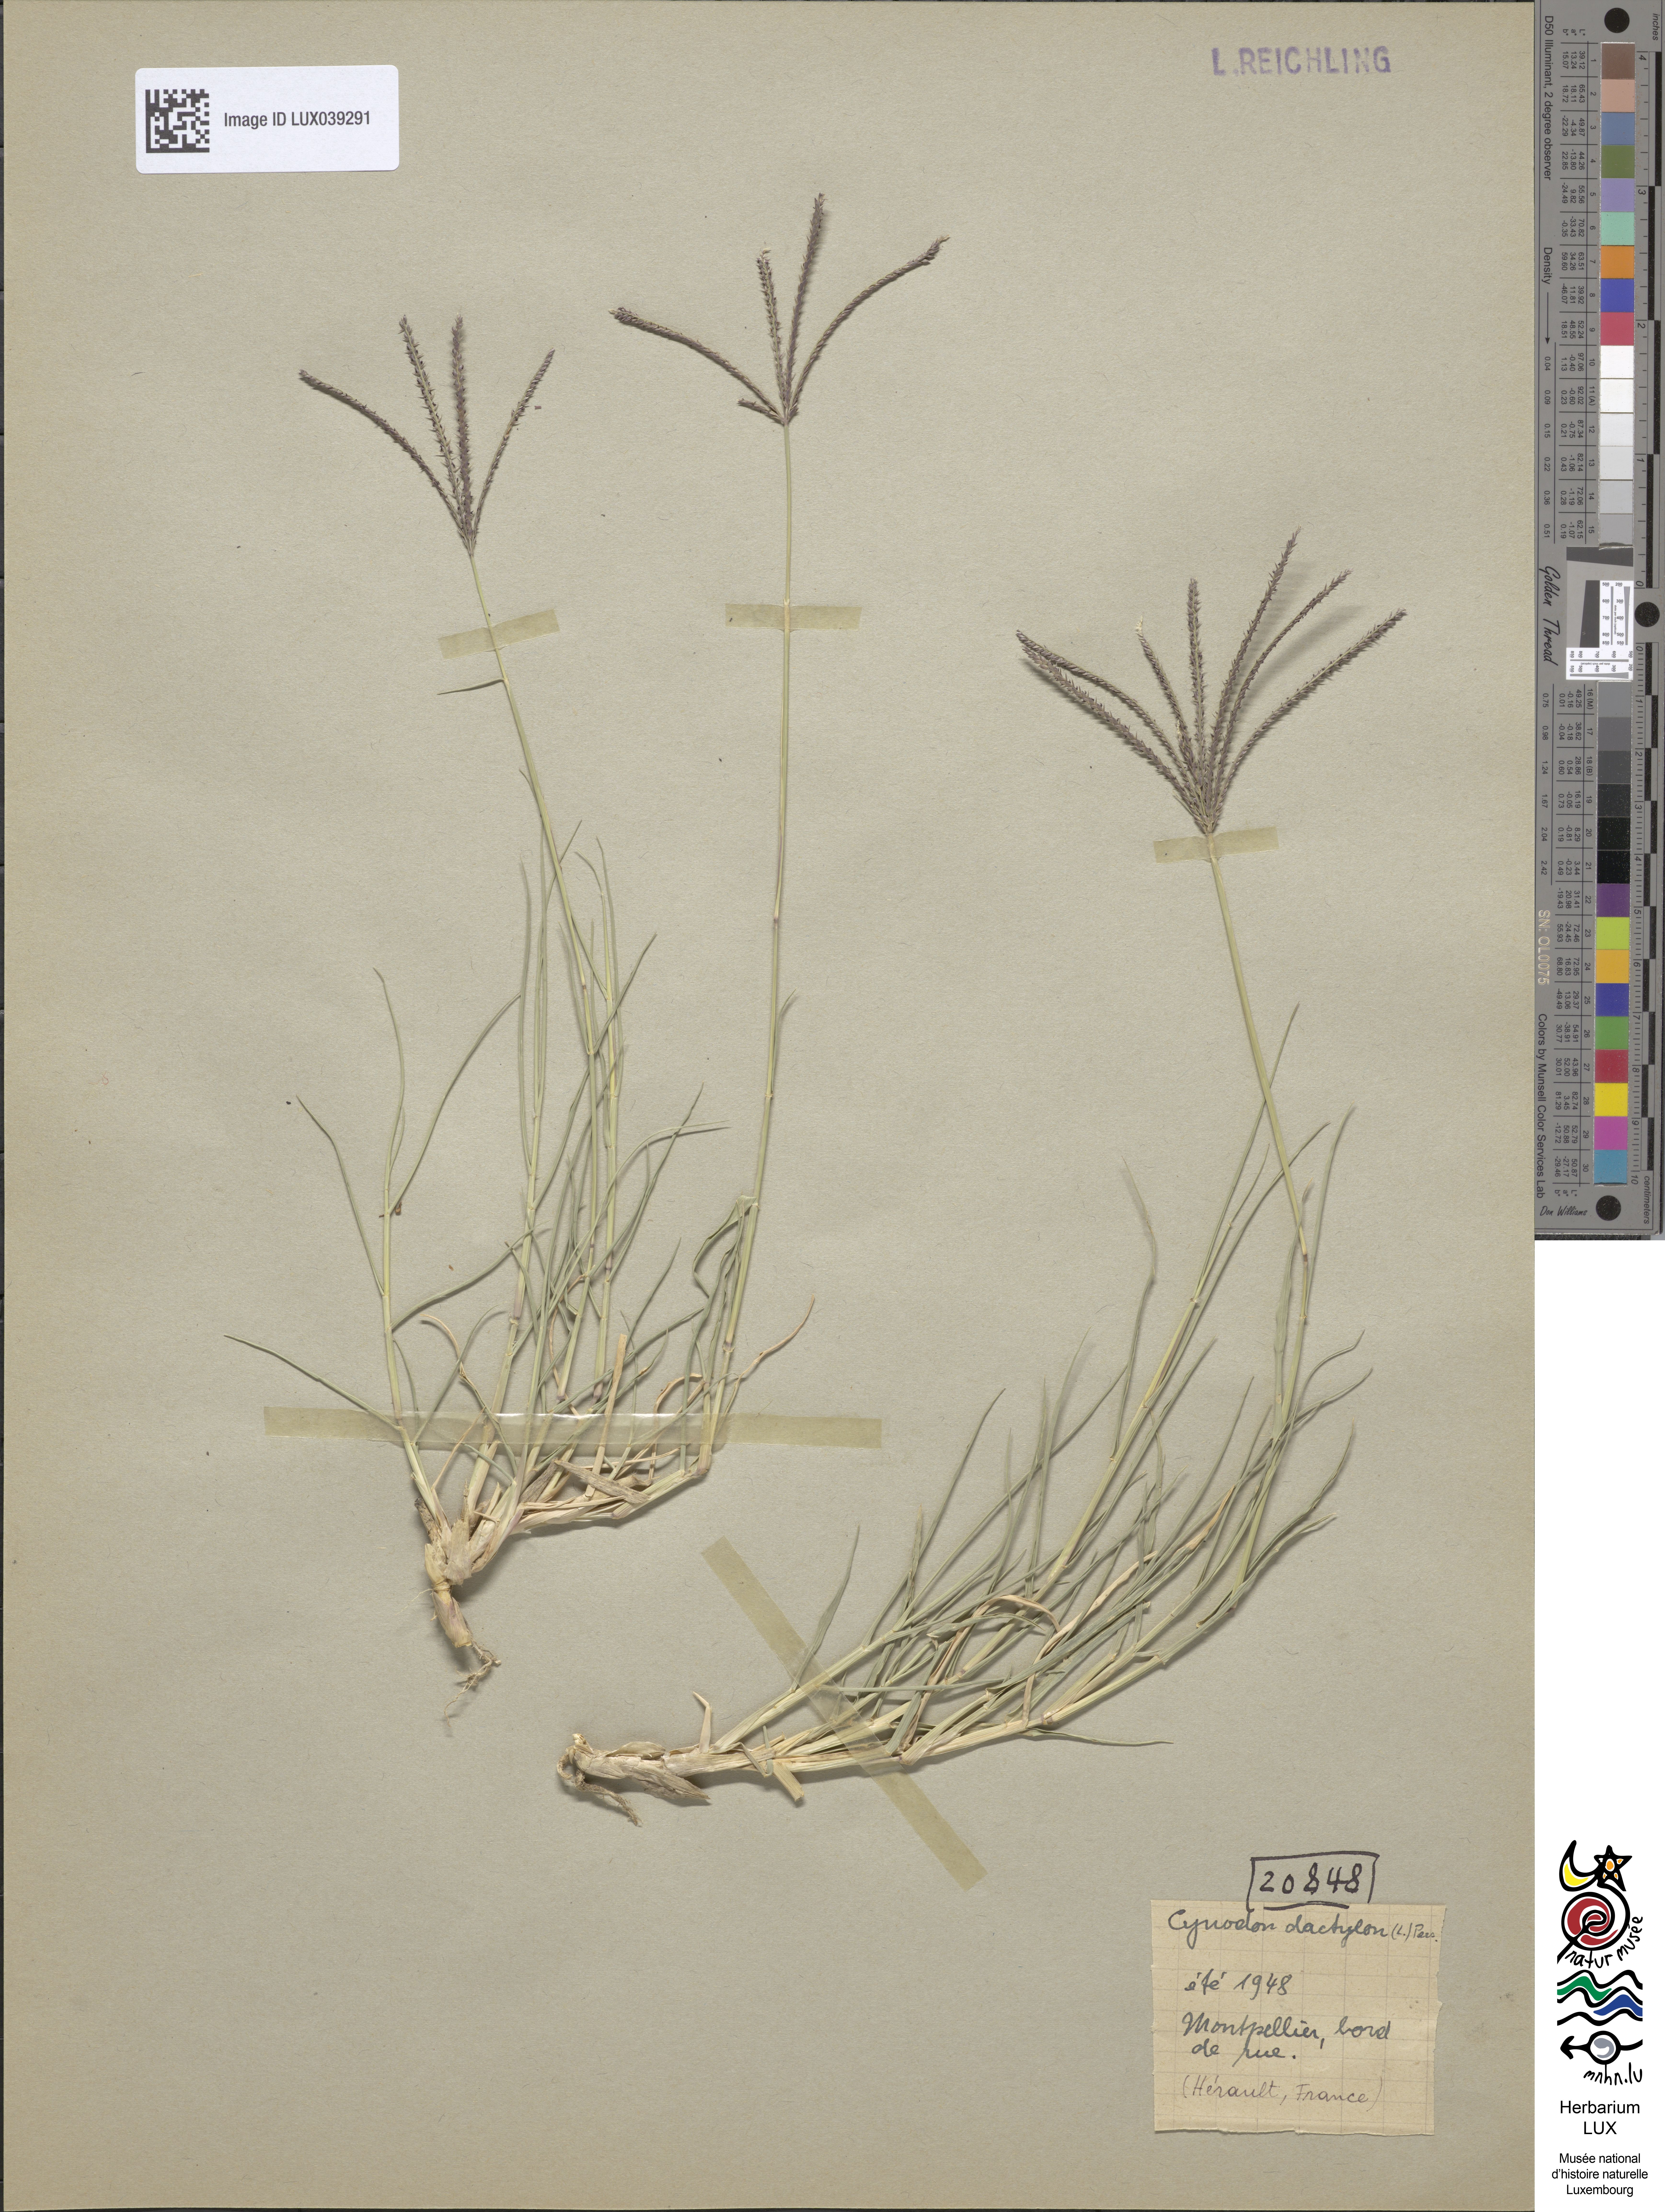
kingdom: Plantae
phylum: Tracheophyta
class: Liliopsida
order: Poales
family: Poaceae
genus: Cynodon
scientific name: Cynodon dactylon
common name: Bermuda grass
